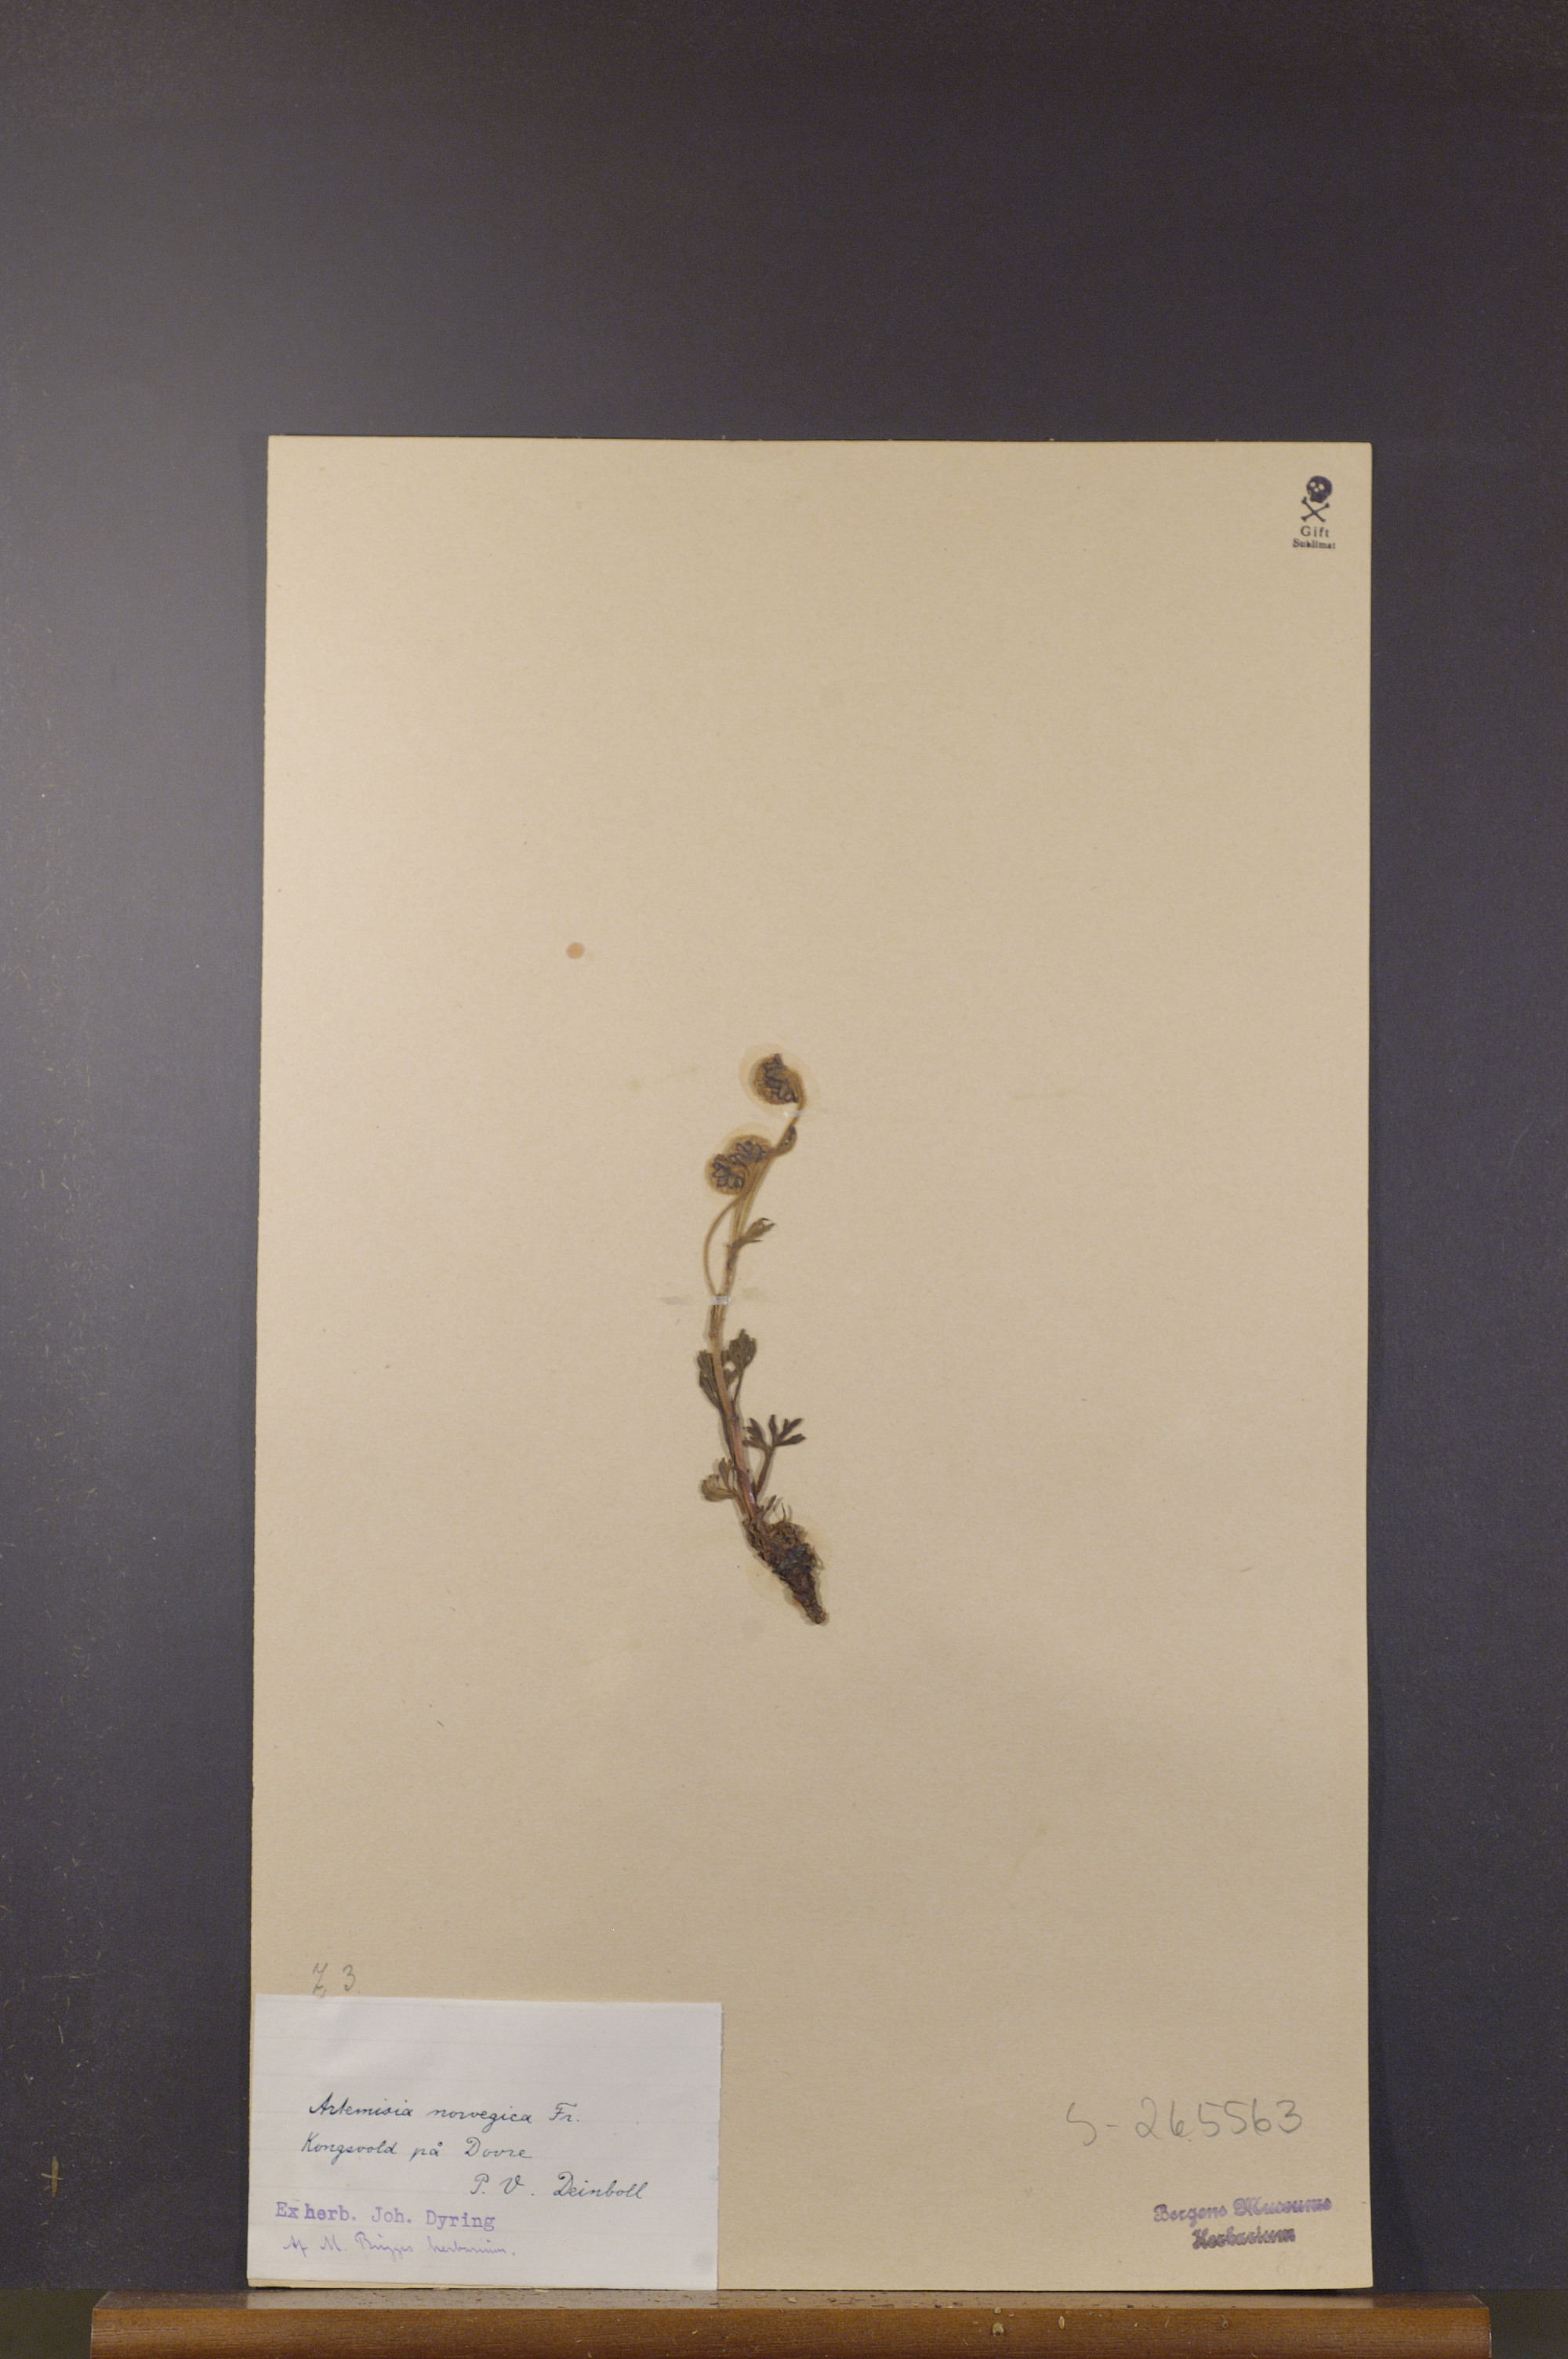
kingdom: Plantae
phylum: Tracheophyta
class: Magnoliopsida
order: Asterales
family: Asteraceae
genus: Artemisia
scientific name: Artemisia norvegica
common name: Norwegian mugwort
